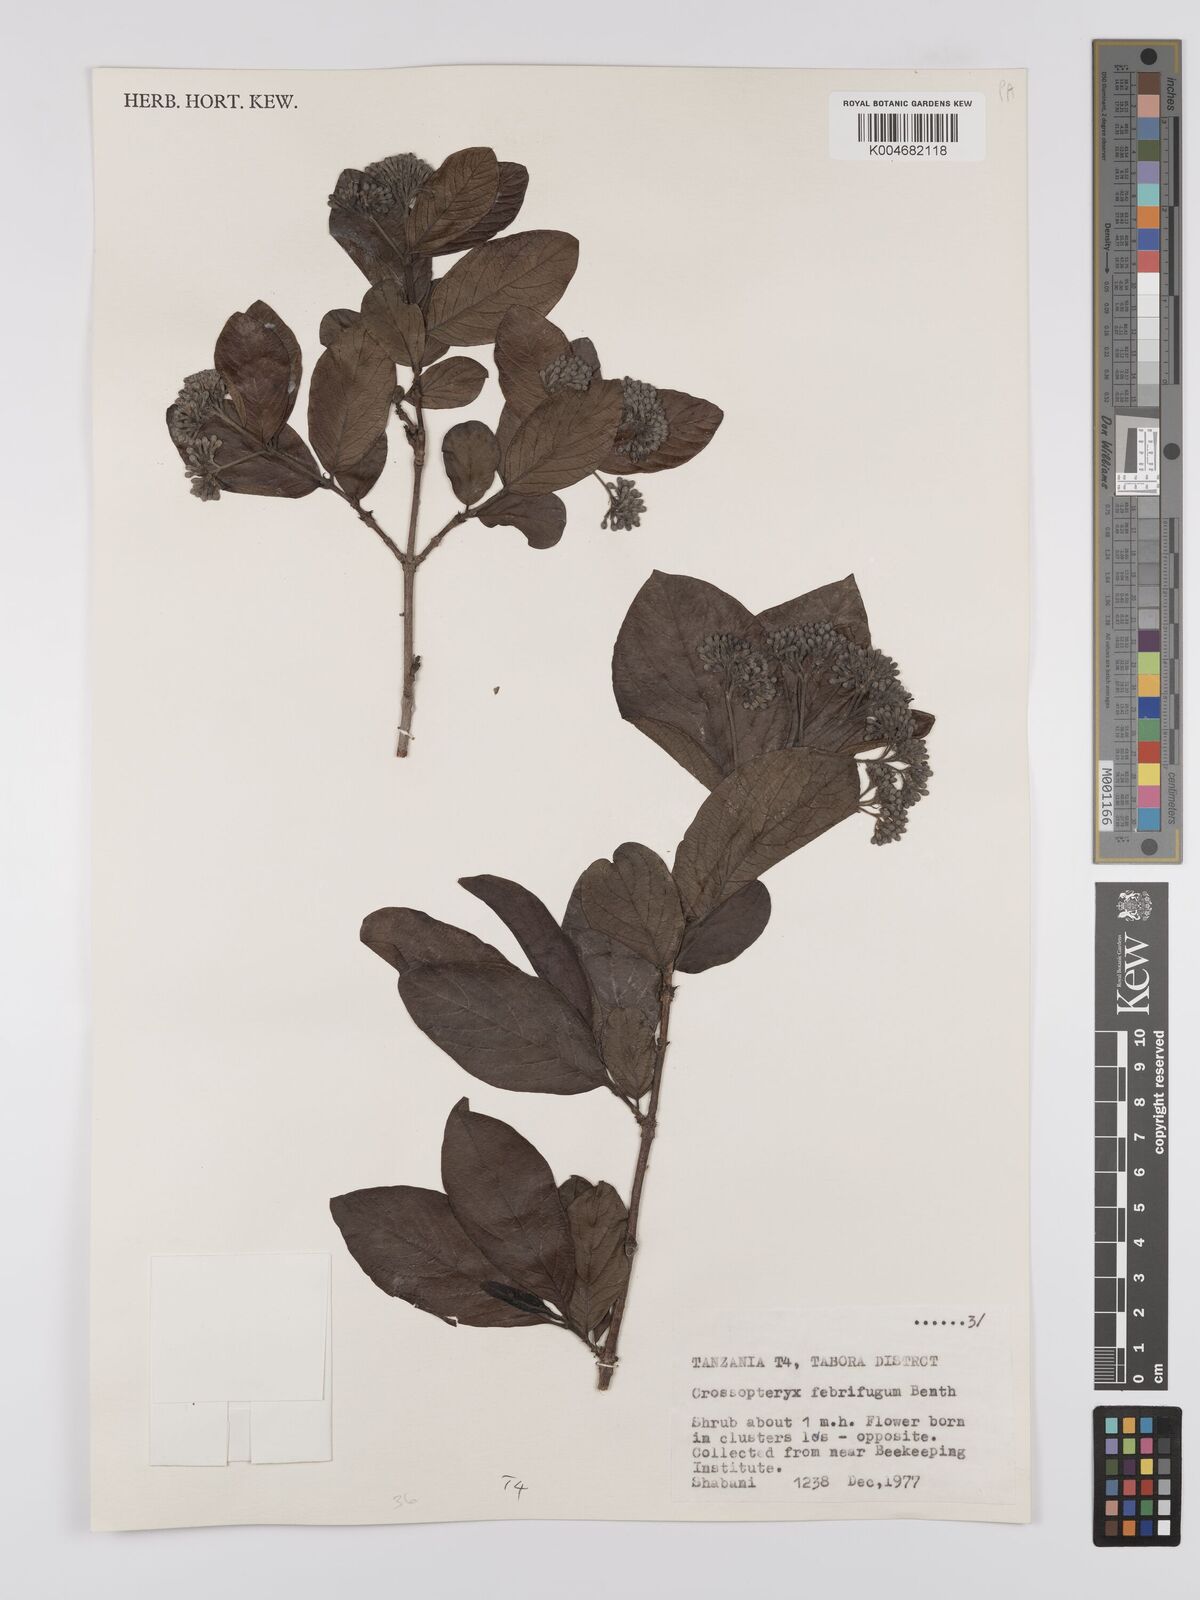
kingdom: Plantae
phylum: Tracheophyta
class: Magnoliopsida
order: Gentianales
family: Rubiaceae
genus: Crossopteryx
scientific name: Crossopteryx febrifuga
